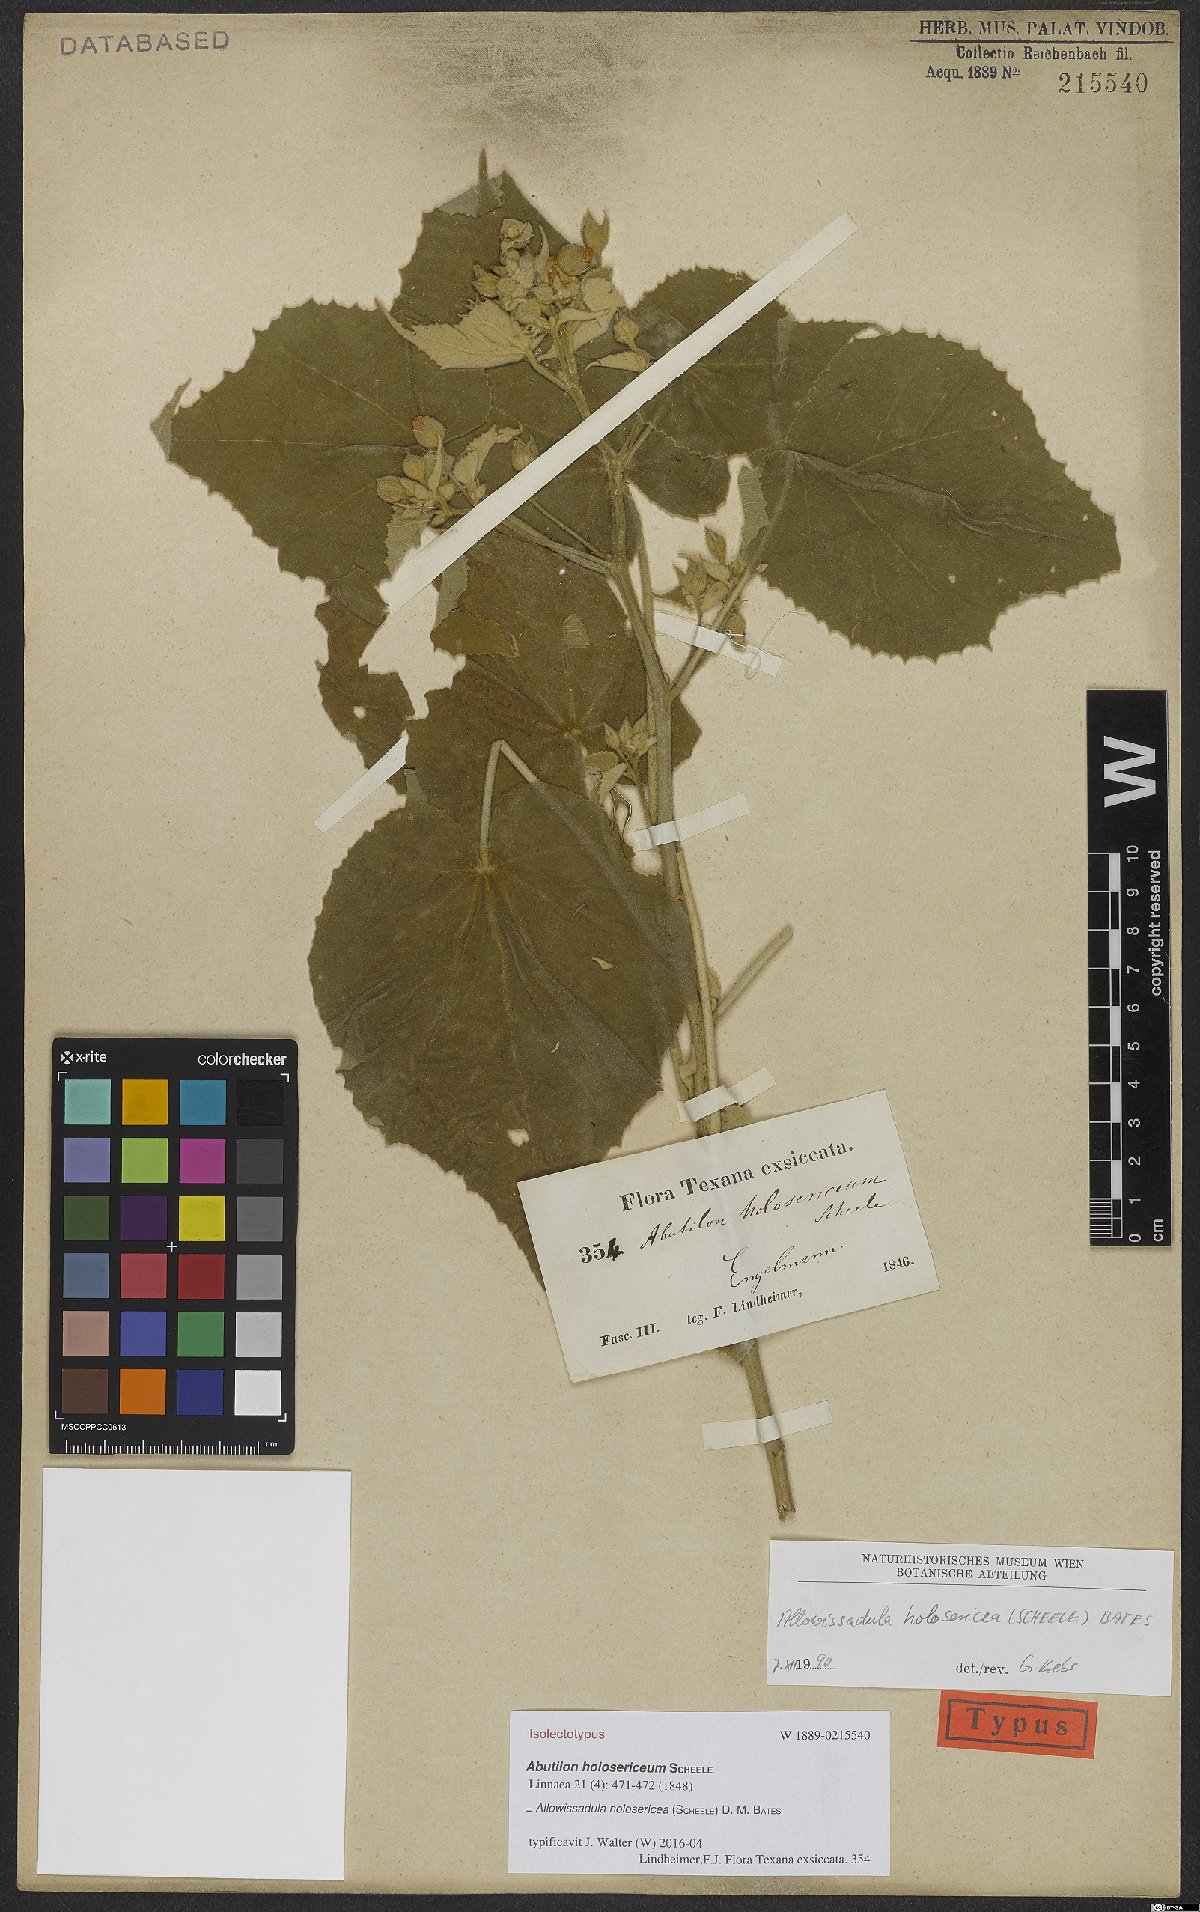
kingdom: Plantae
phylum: Tracheophyta
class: Magnoliopsida
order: Malvales
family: Malvaceae
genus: Allowissadula
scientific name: Allowissadula holosericea
